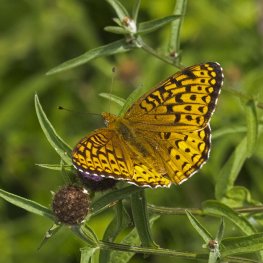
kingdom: Animalia
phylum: Arthropoda
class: Insecta
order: Lepidoptera
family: Nymphalidae
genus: Speyeria
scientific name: Speyeria atlantis
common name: Atlantis Fritillary
